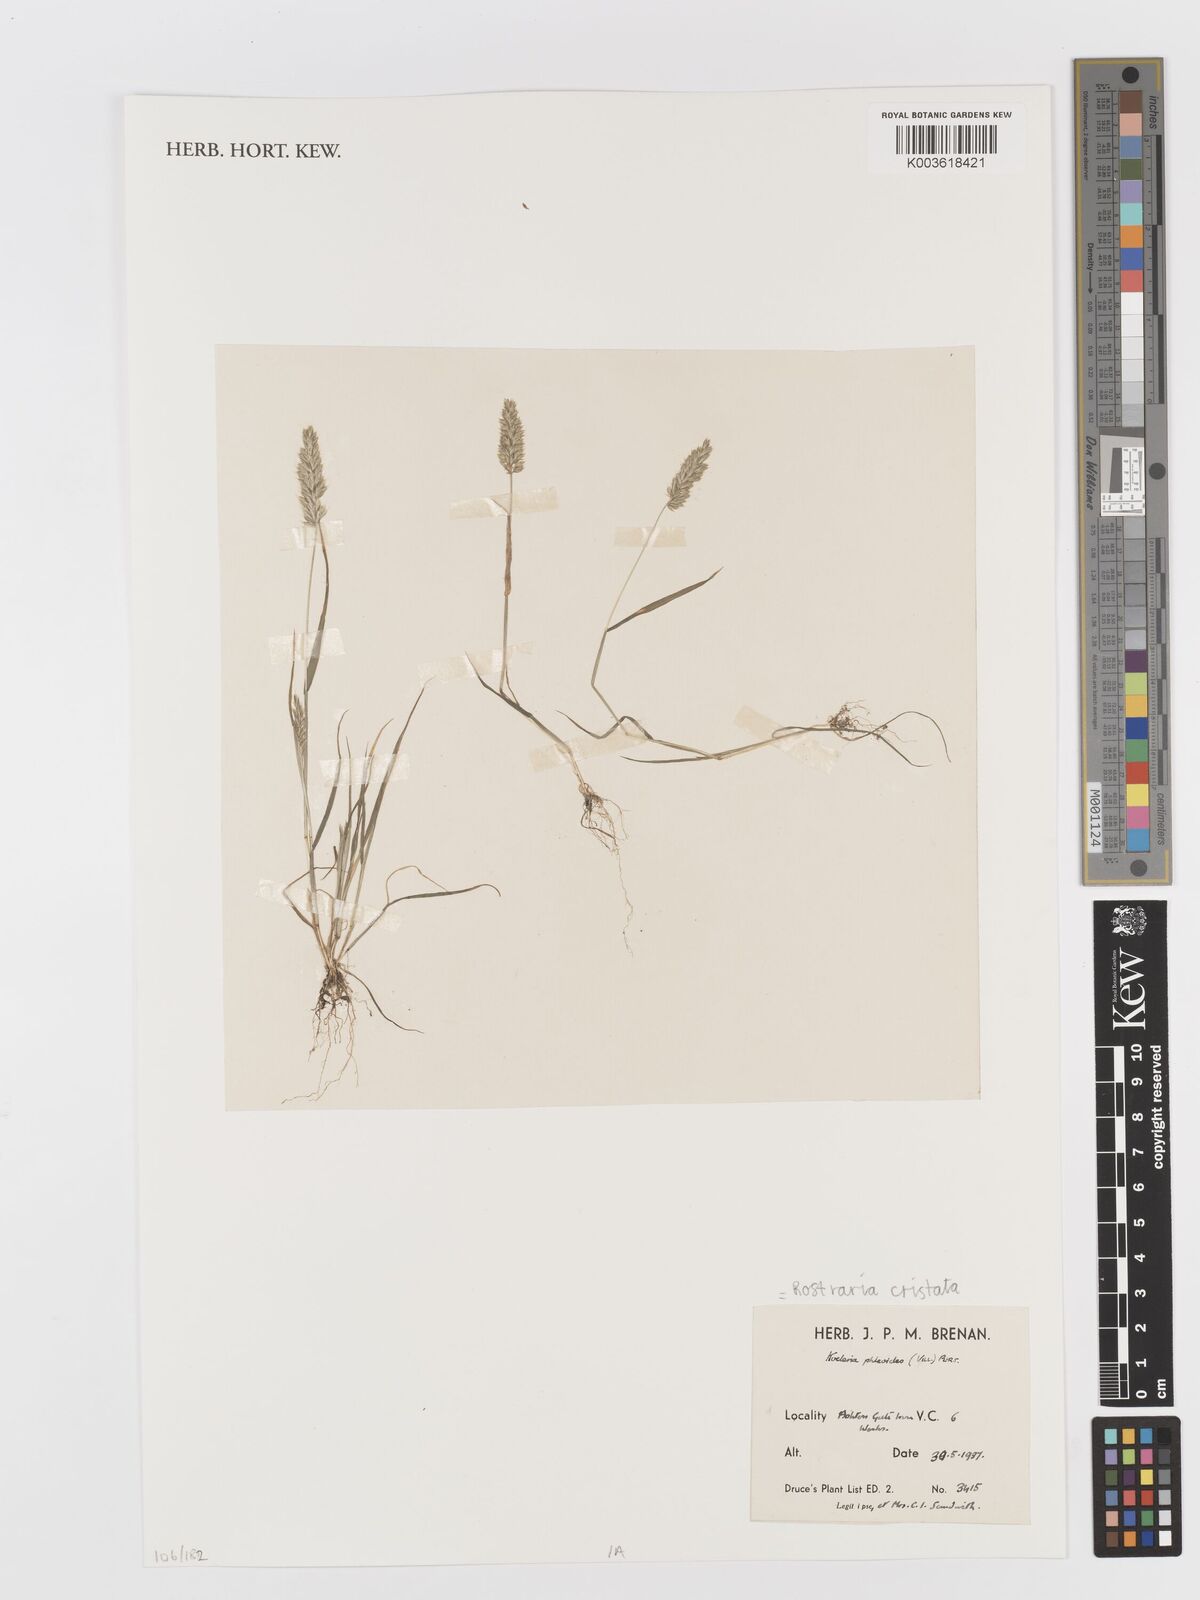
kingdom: Plantae
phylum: Tracheophyta
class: Liliopsida
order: Poales
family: Poaceae
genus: Rostraria
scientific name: Rostraria cristata
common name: Mediterranean hair-grass
